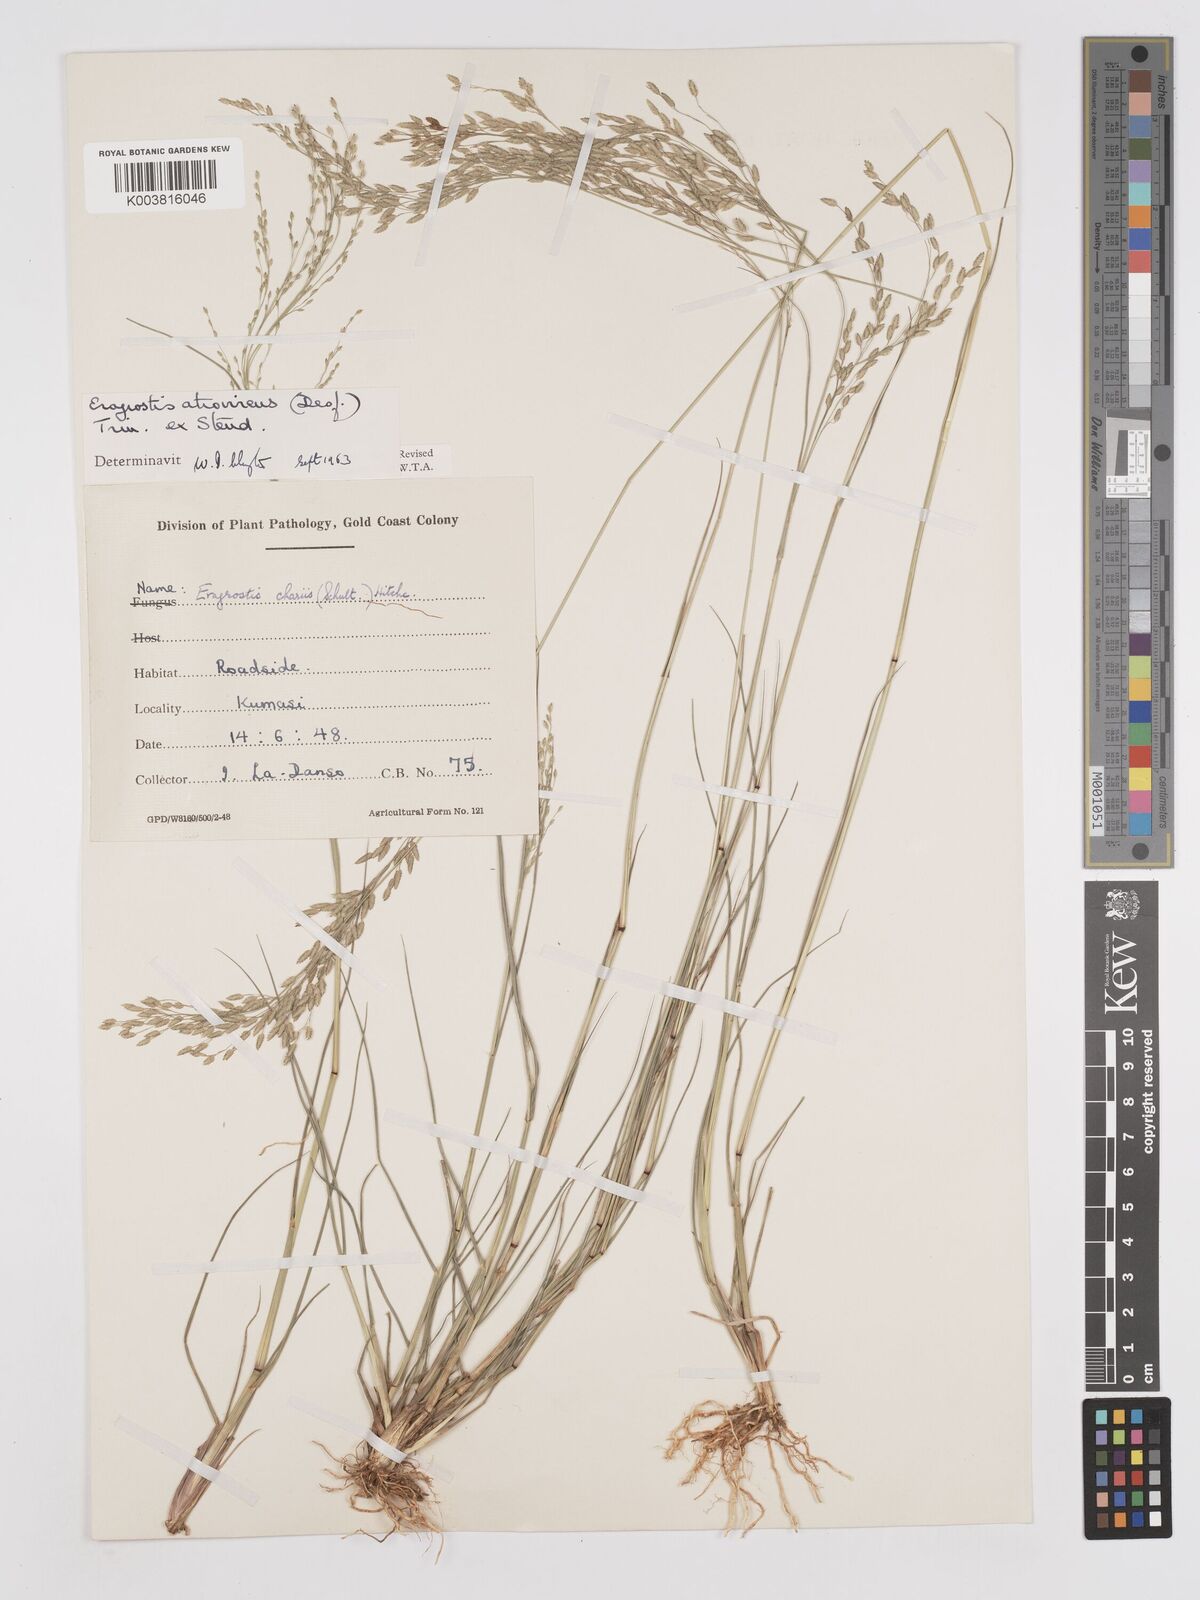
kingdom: Plantae
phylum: Tracheophyta
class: Liliopsida
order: Poales
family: Poaceae
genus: Eragrostis
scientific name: Eragrostis atrovirens
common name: Thalia lovegrass
